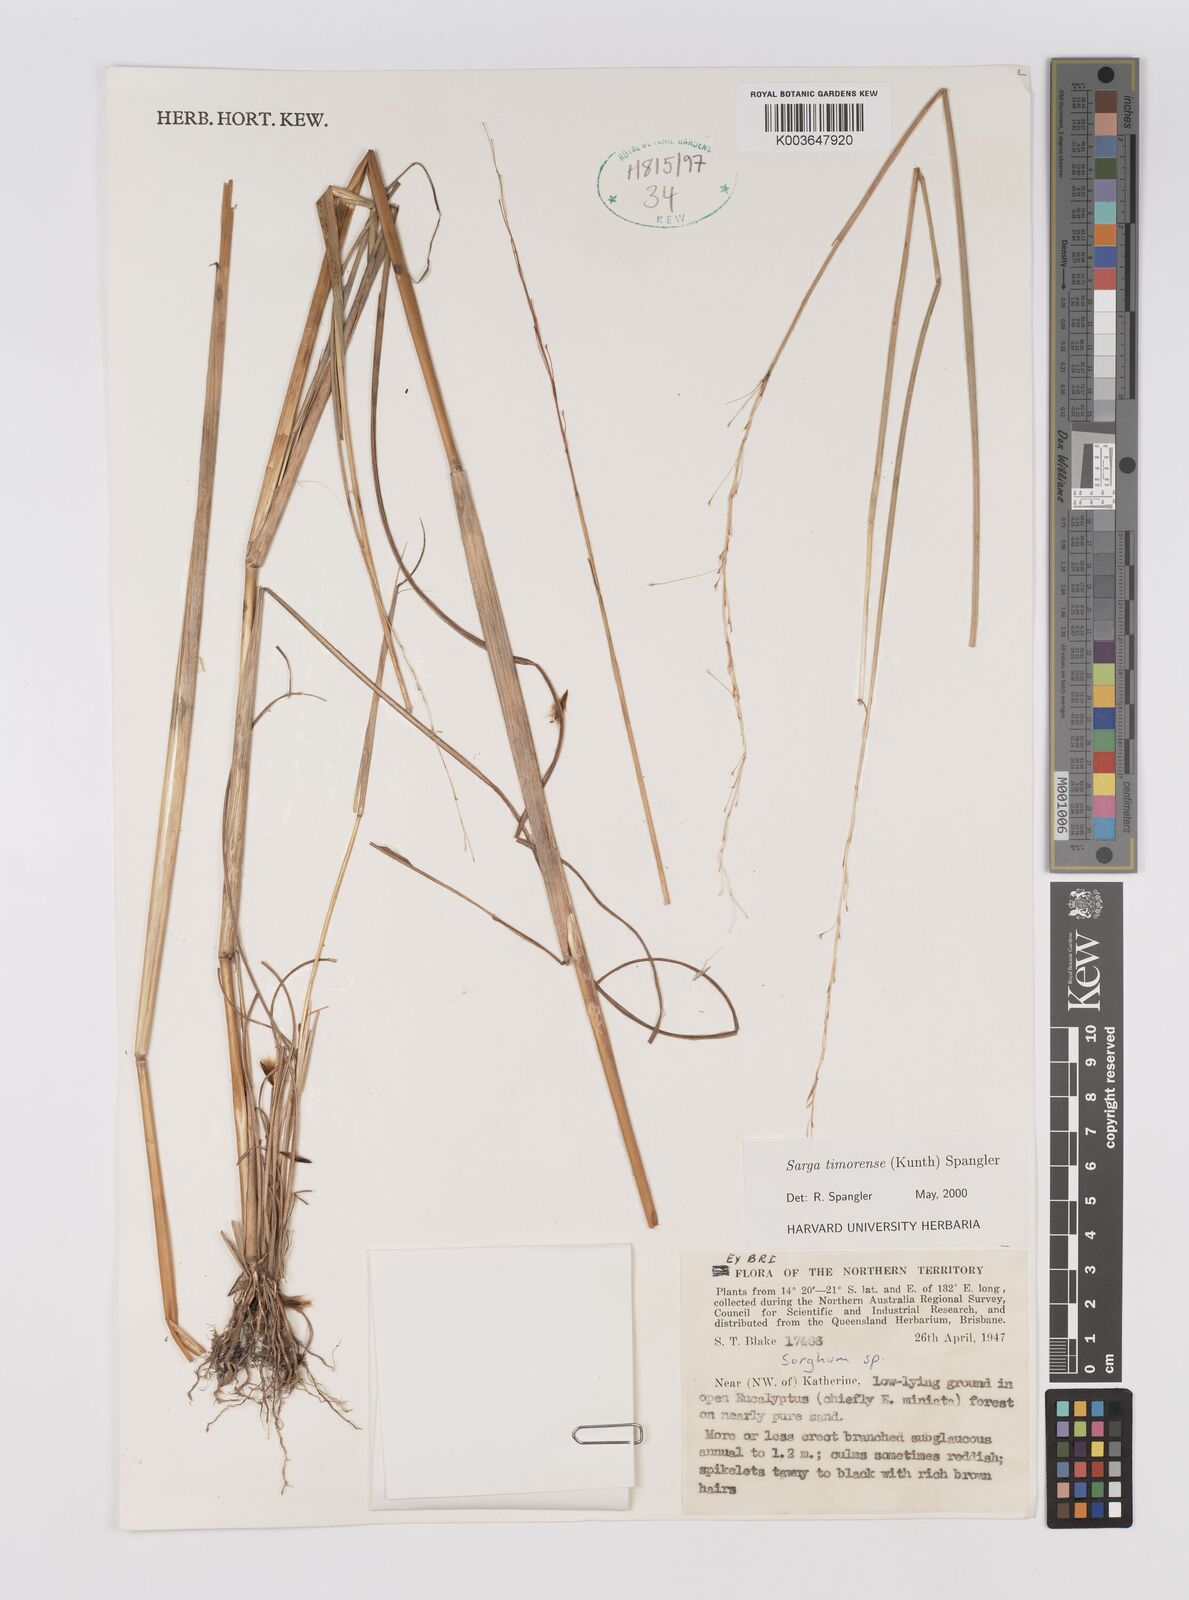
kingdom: Plantae
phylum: Tracheophyta
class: Liliopsida
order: Poales
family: Poaceae
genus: Sarga
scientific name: Sarga timorensis
